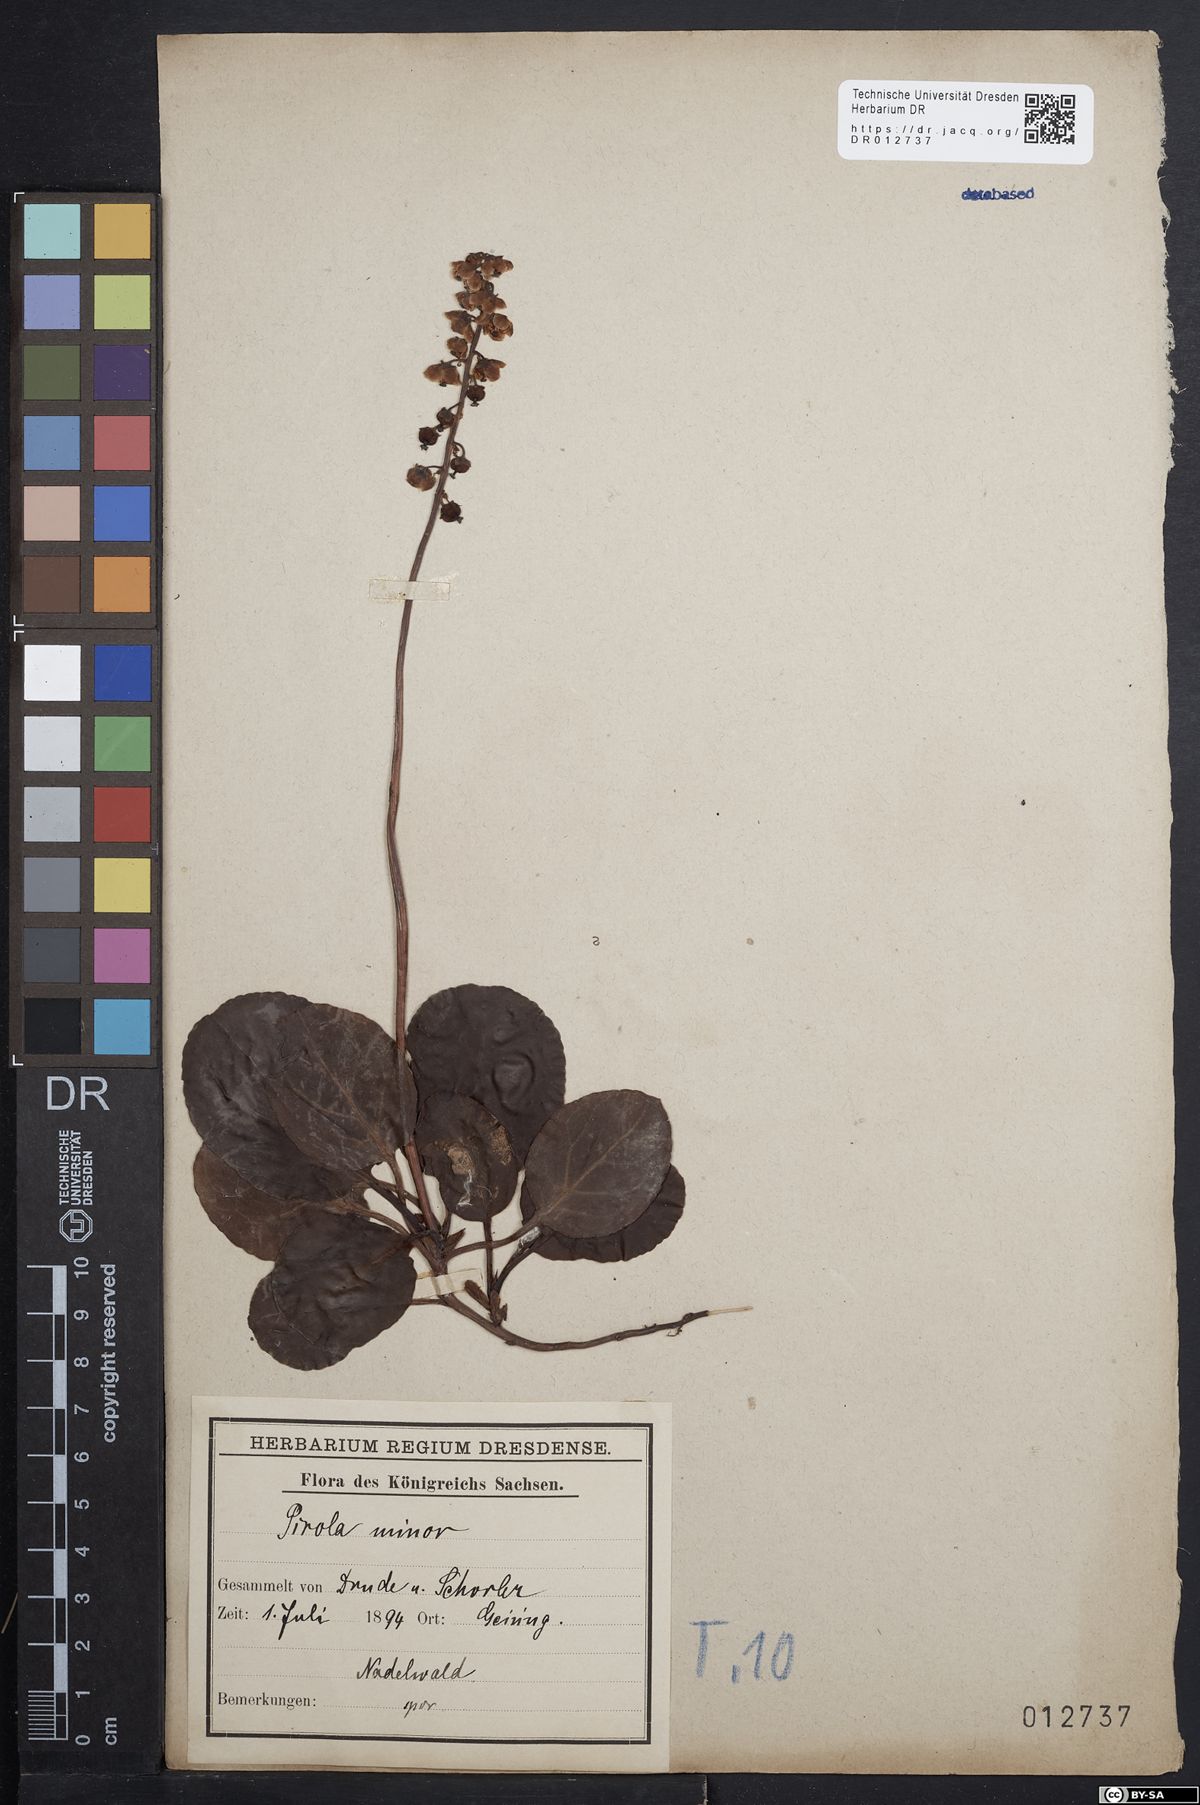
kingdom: Plantae
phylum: Tracheophyta
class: Magnoliopsida
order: Ericales
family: Ericaceae
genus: Pyrola
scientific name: Pyrola minor
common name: Common wintergreen
